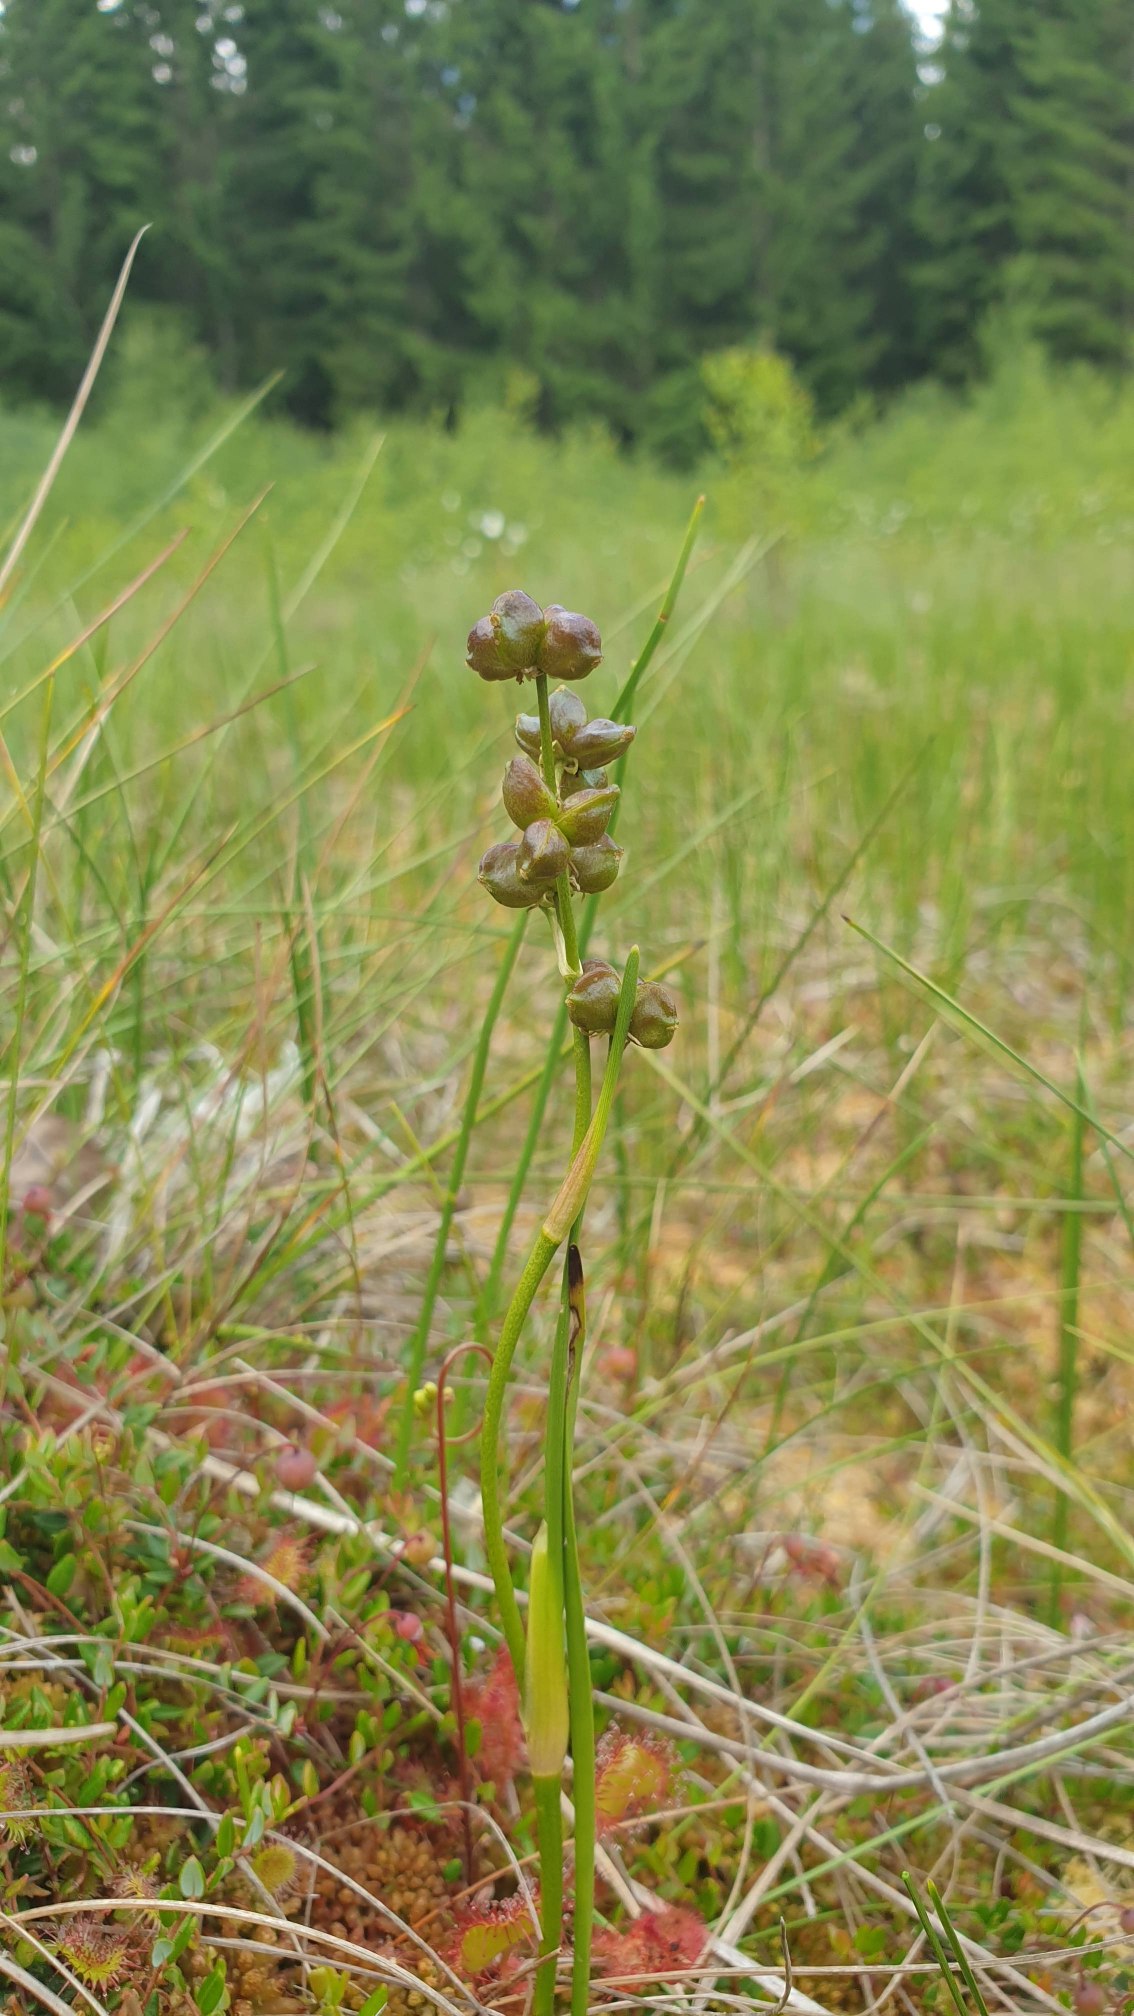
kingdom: Plantae
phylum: Tracheophyta
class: Liliopsida
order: Alismatales
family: Scheuchzeriaceae
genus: Scheuchzeria
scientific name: Scheuchzeria palustris
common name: Blomstersiv
